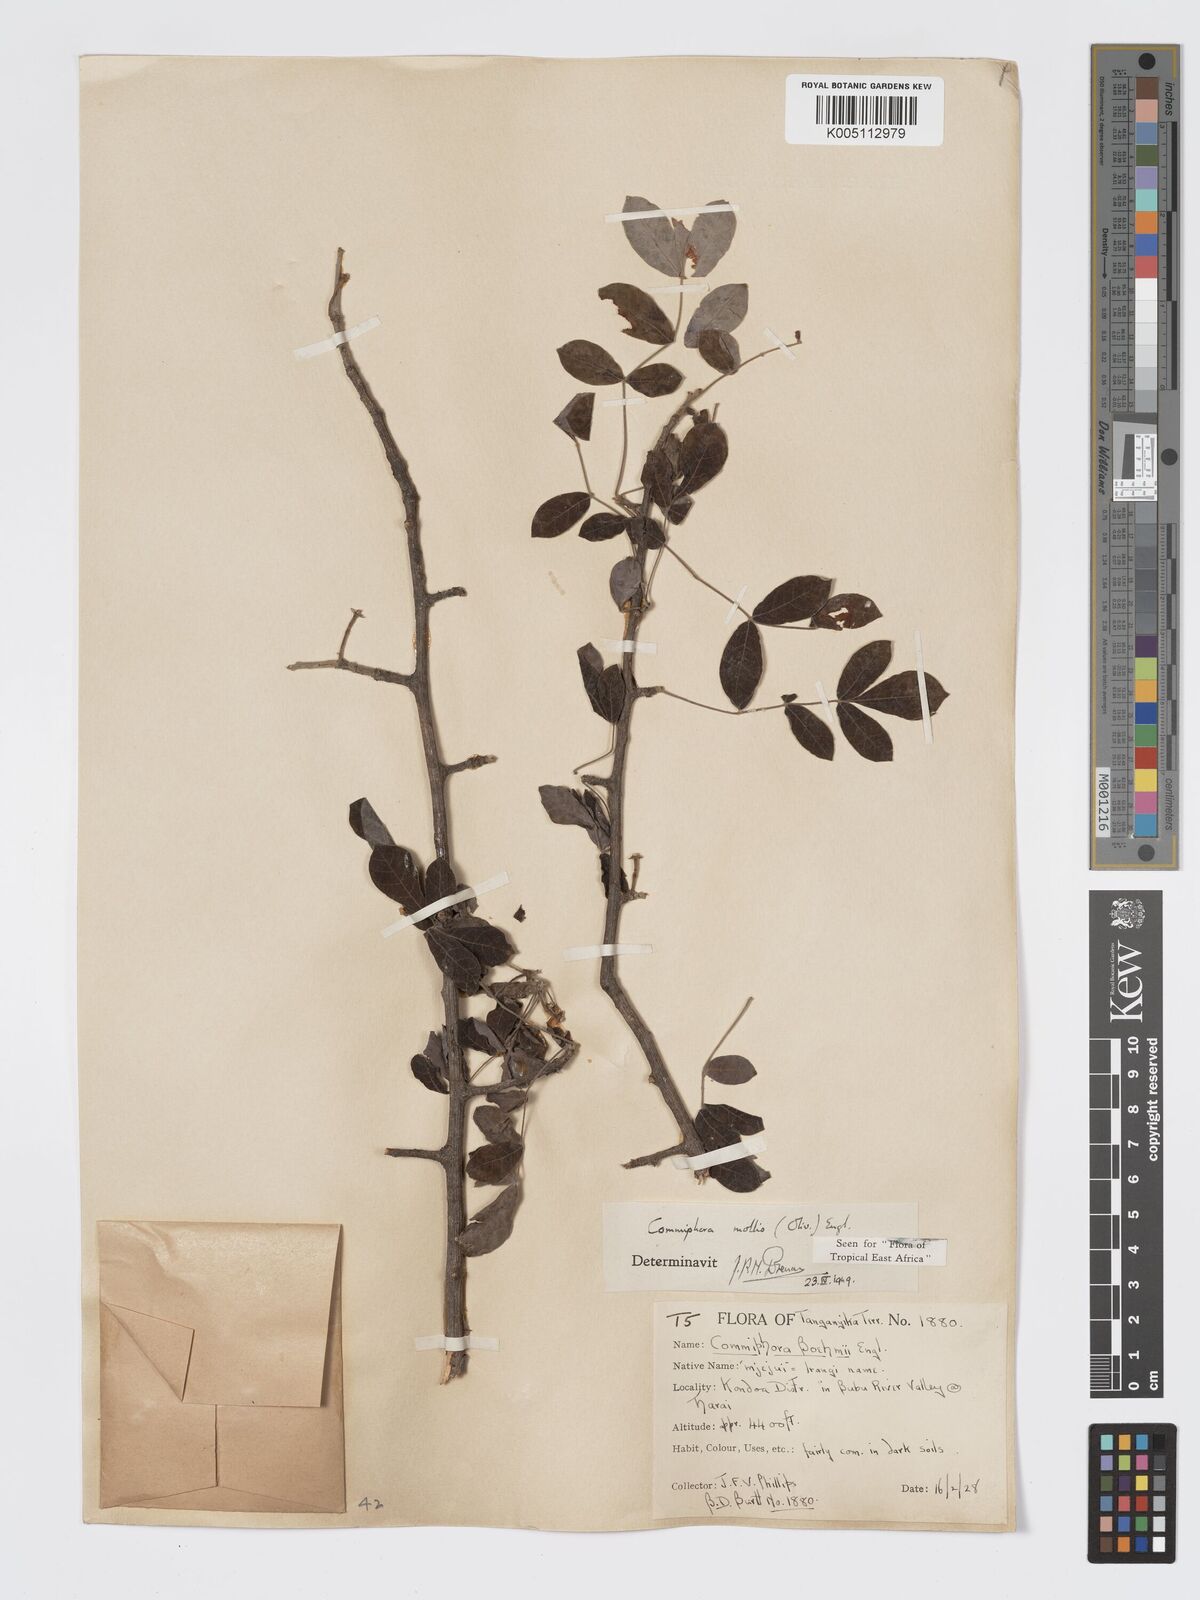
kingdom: Plantae
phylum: Tracheophyta
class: Magnoliopsida
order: Sapindales
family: Burseraceae
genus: Commiphora
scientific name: Commiphora
